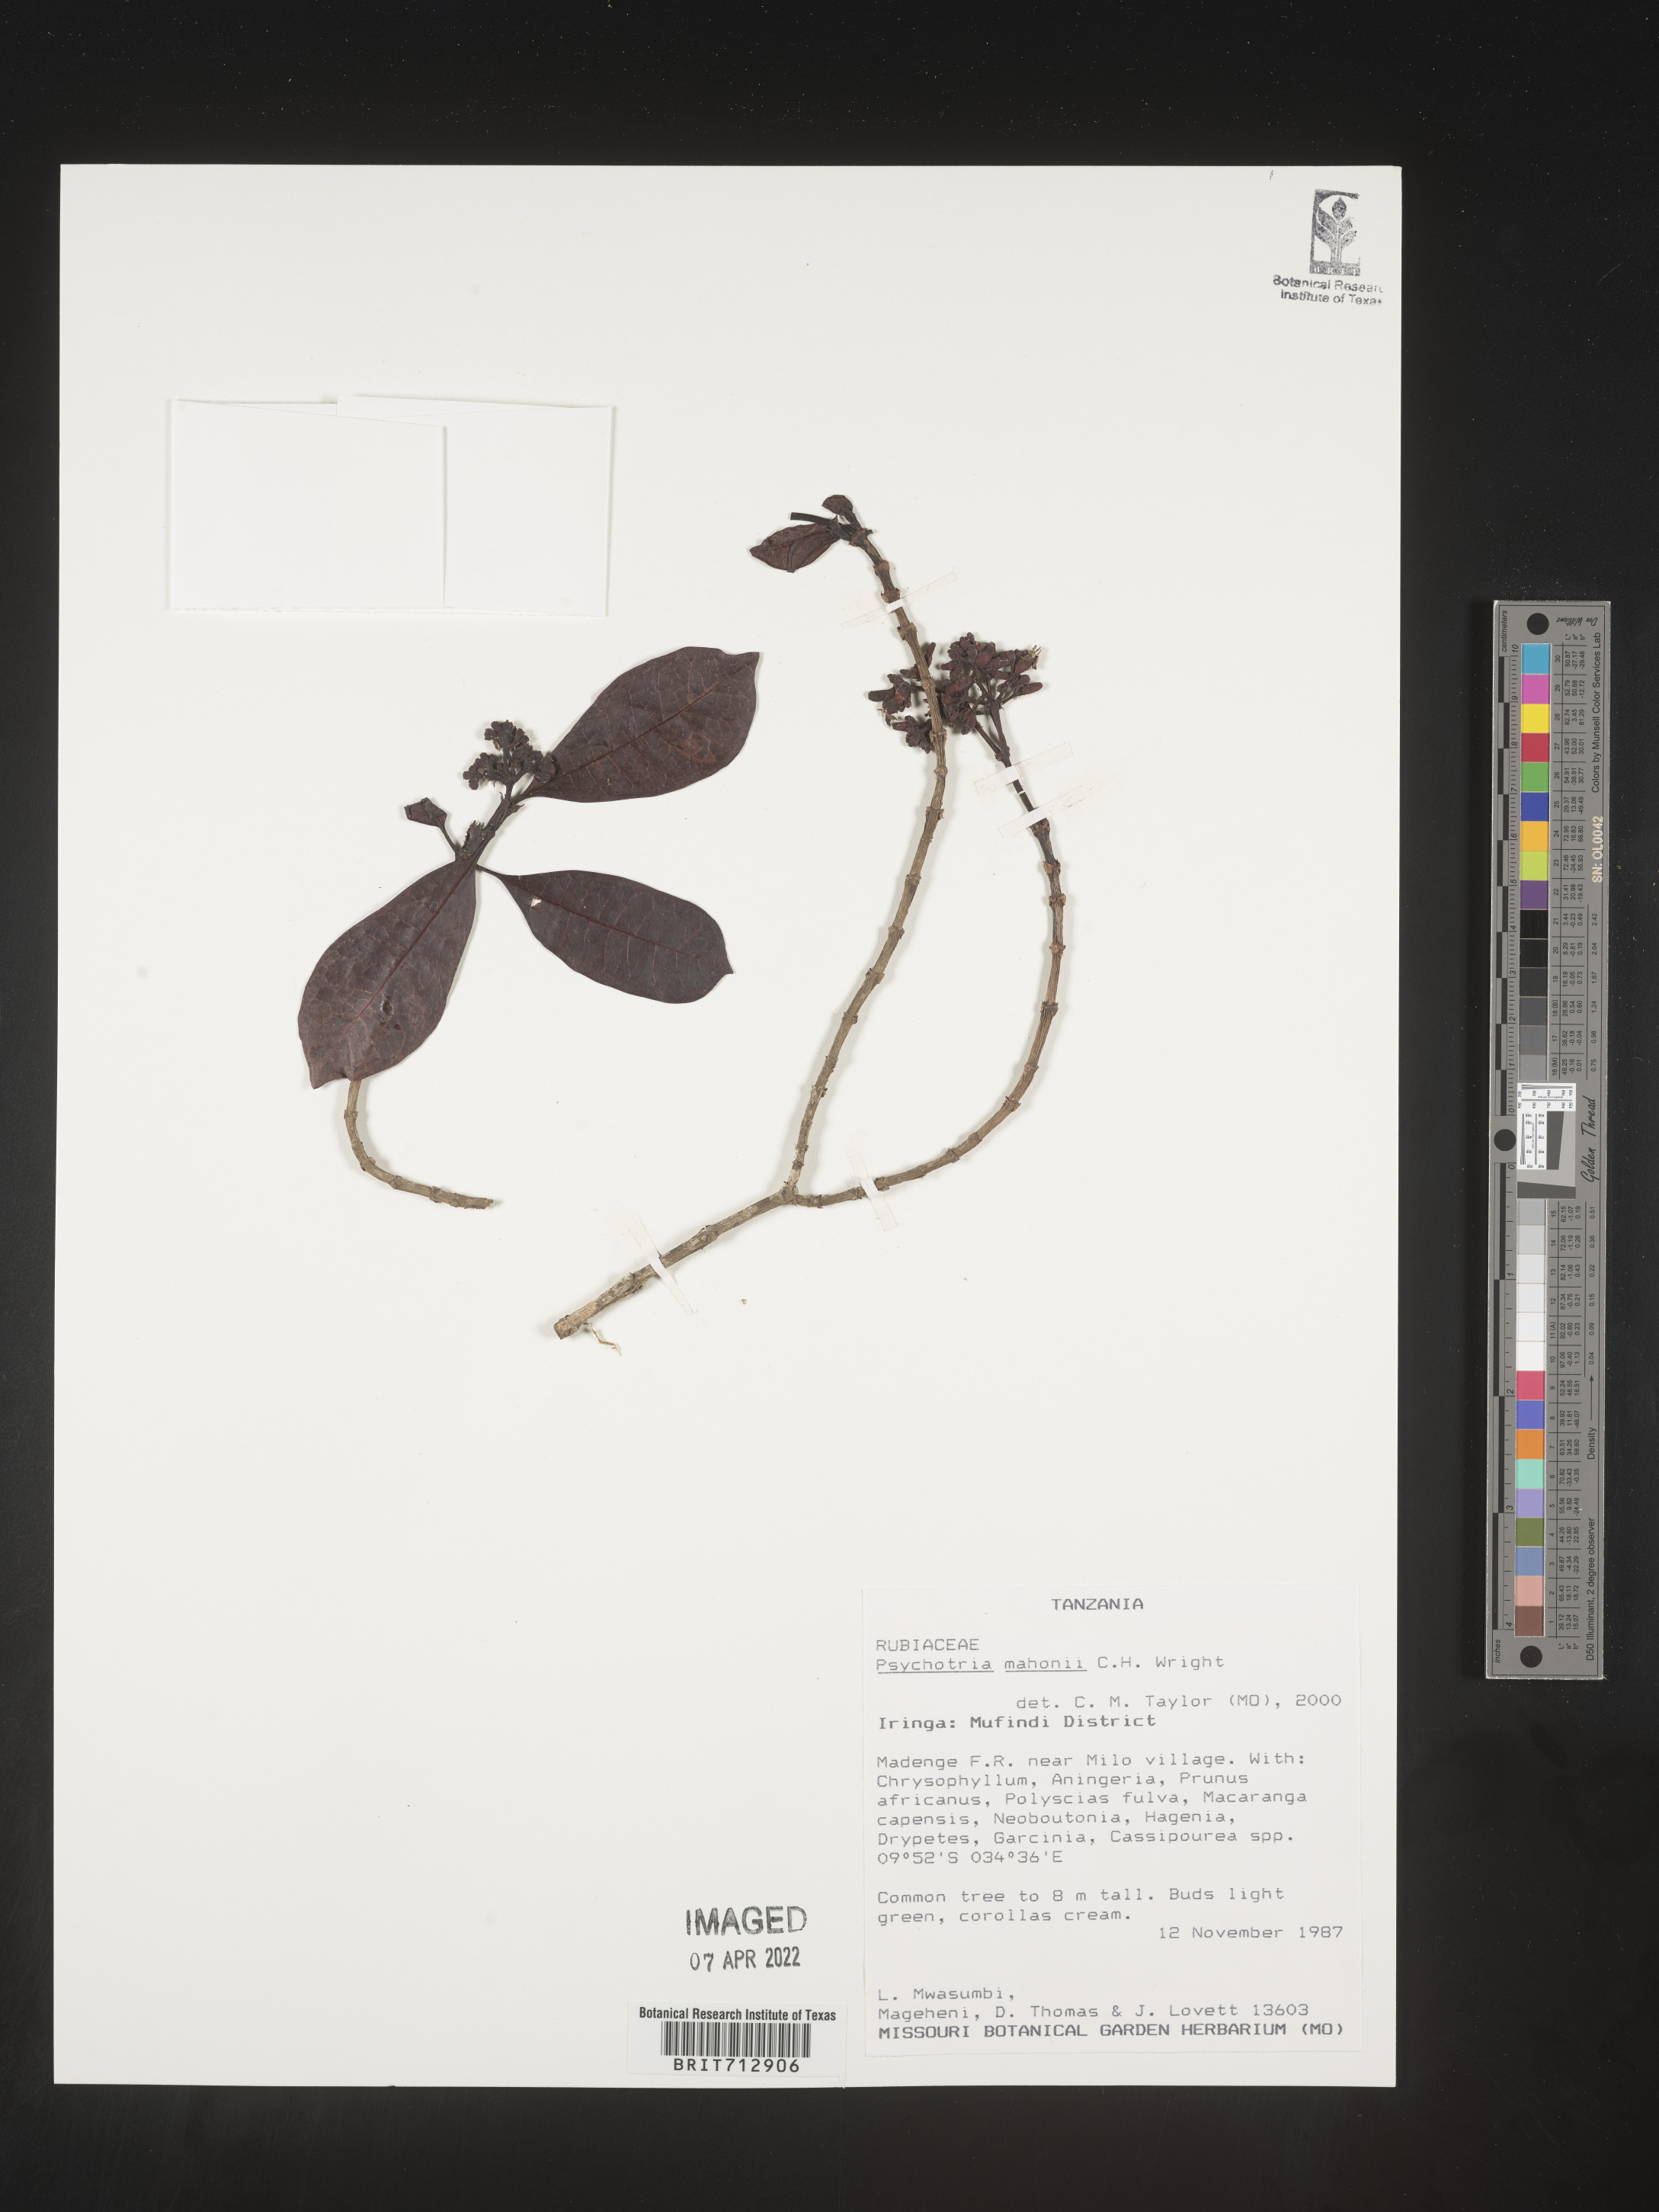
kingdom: Plantae
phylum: Tracheophyta
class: Magnoliopsida
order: Gentianales
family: Rubiaceae
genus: Psychotria
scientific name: Psychotria mahonii
